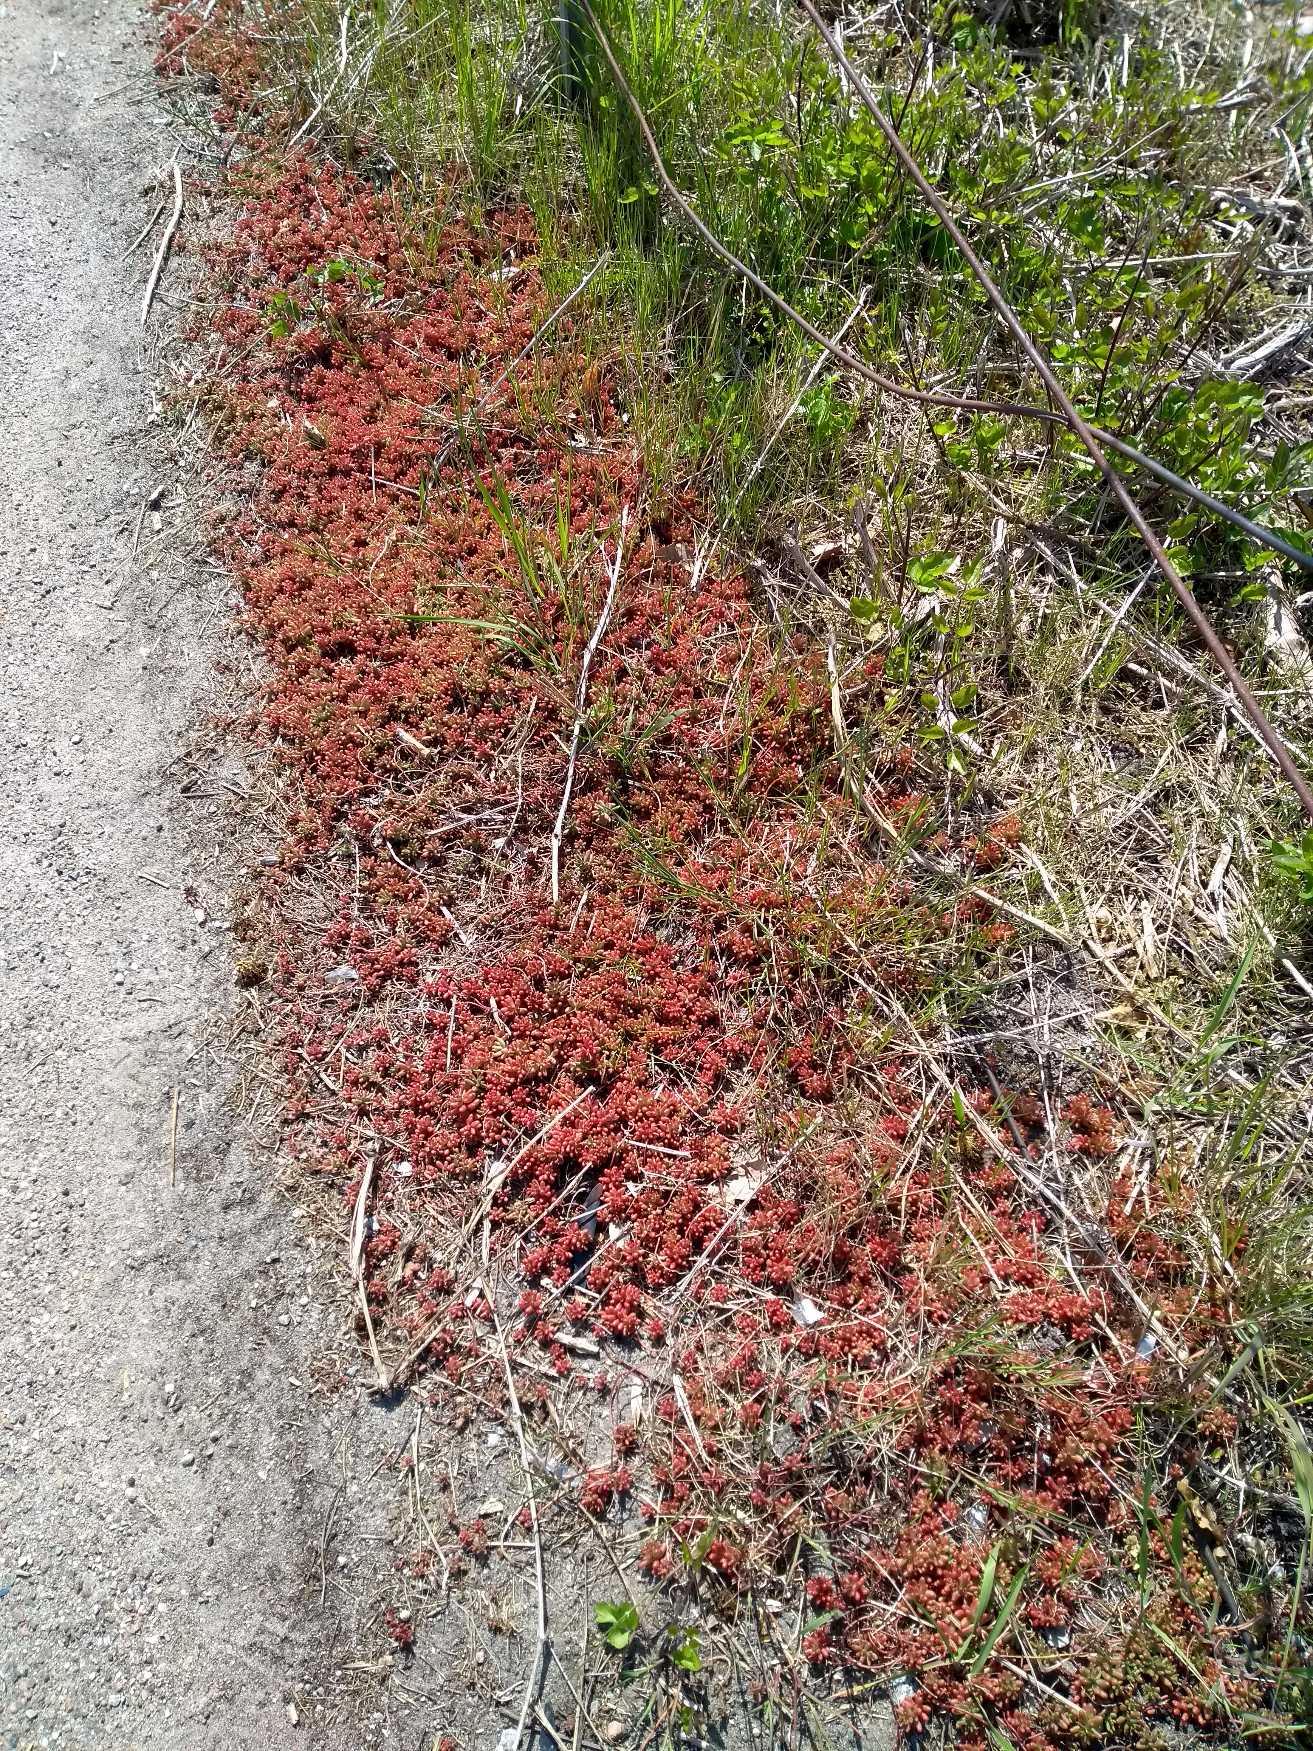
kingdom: Plantae
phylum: Tracheophyta
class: Magnoliopsida
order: Saxifragales
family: Crassulaceae
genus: Sedum
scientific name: Sedum album
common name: Hvid stenurt
